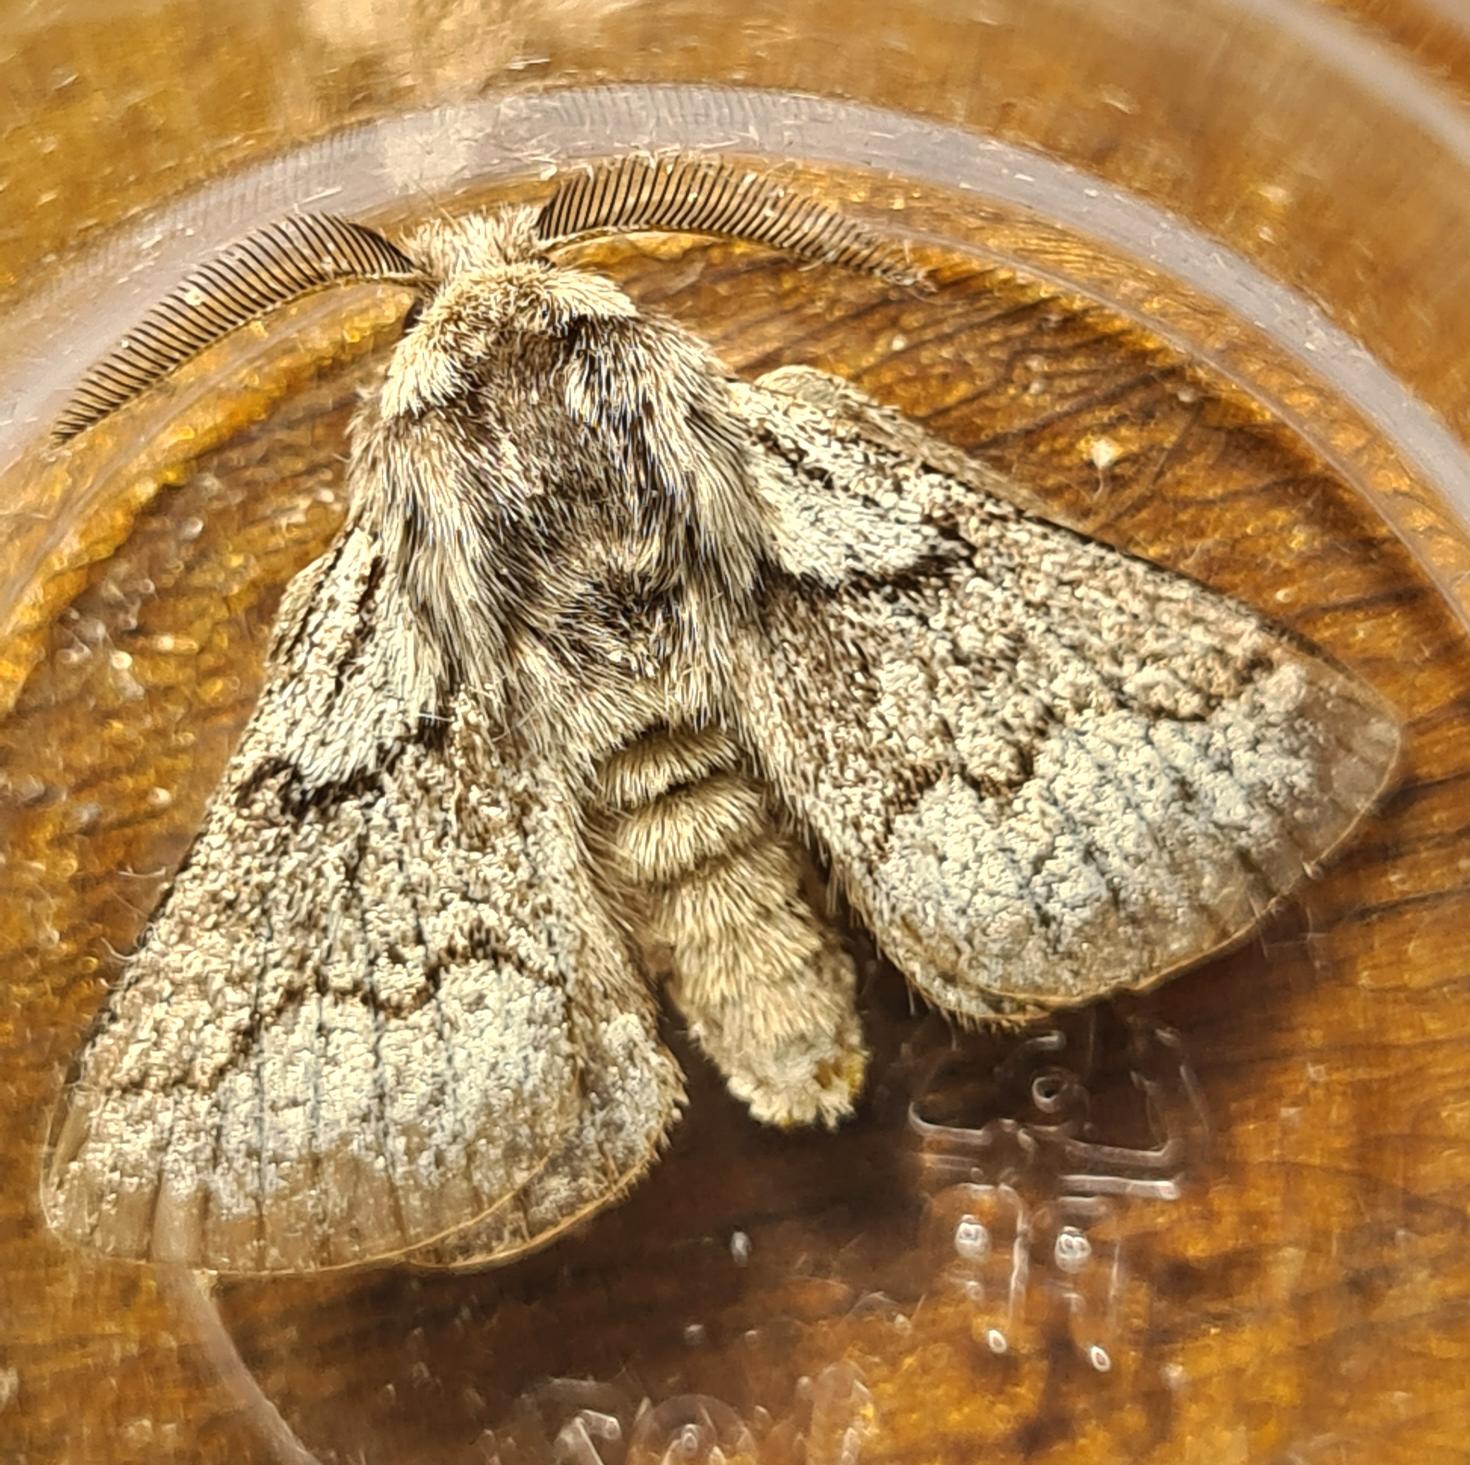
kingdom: Animalia
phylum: Arthropoda
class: Insecta
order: Lepidoptera
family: Lasiocampidae
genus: Trichiura
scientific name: Trichiura crataegi
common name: Tjørnespinder
